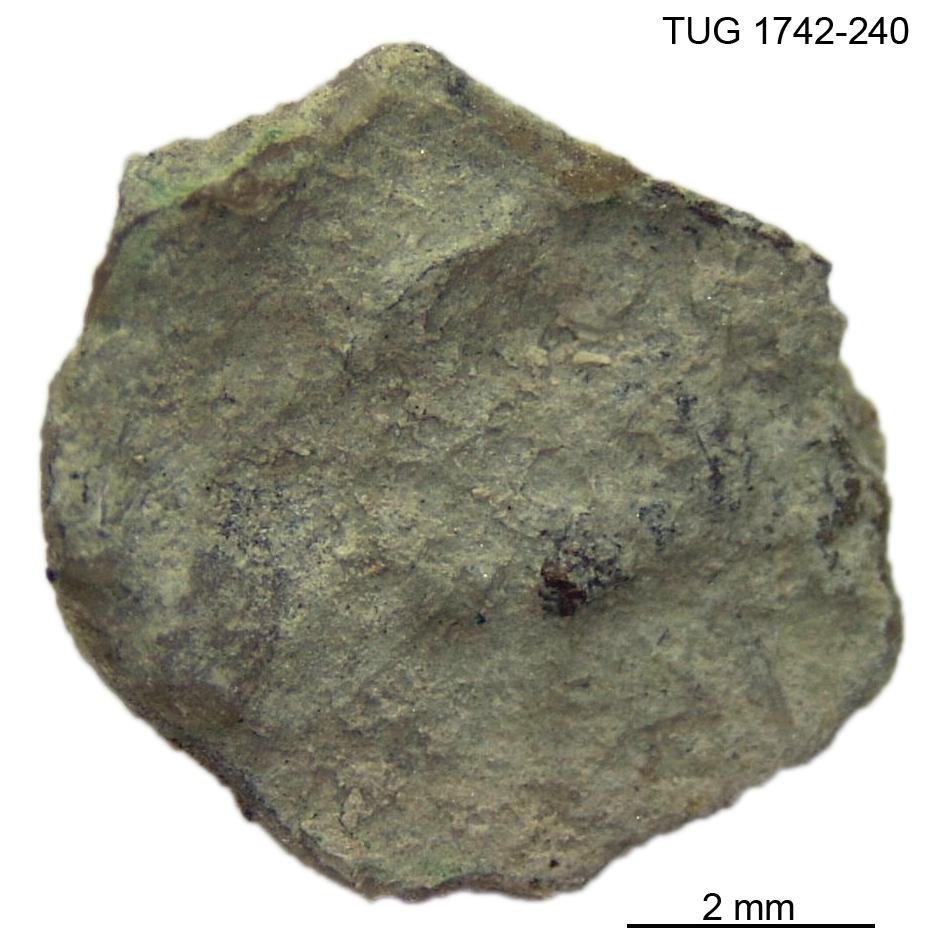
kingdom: Animalia
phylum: Brachiopoda
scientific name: Brachiopoda
